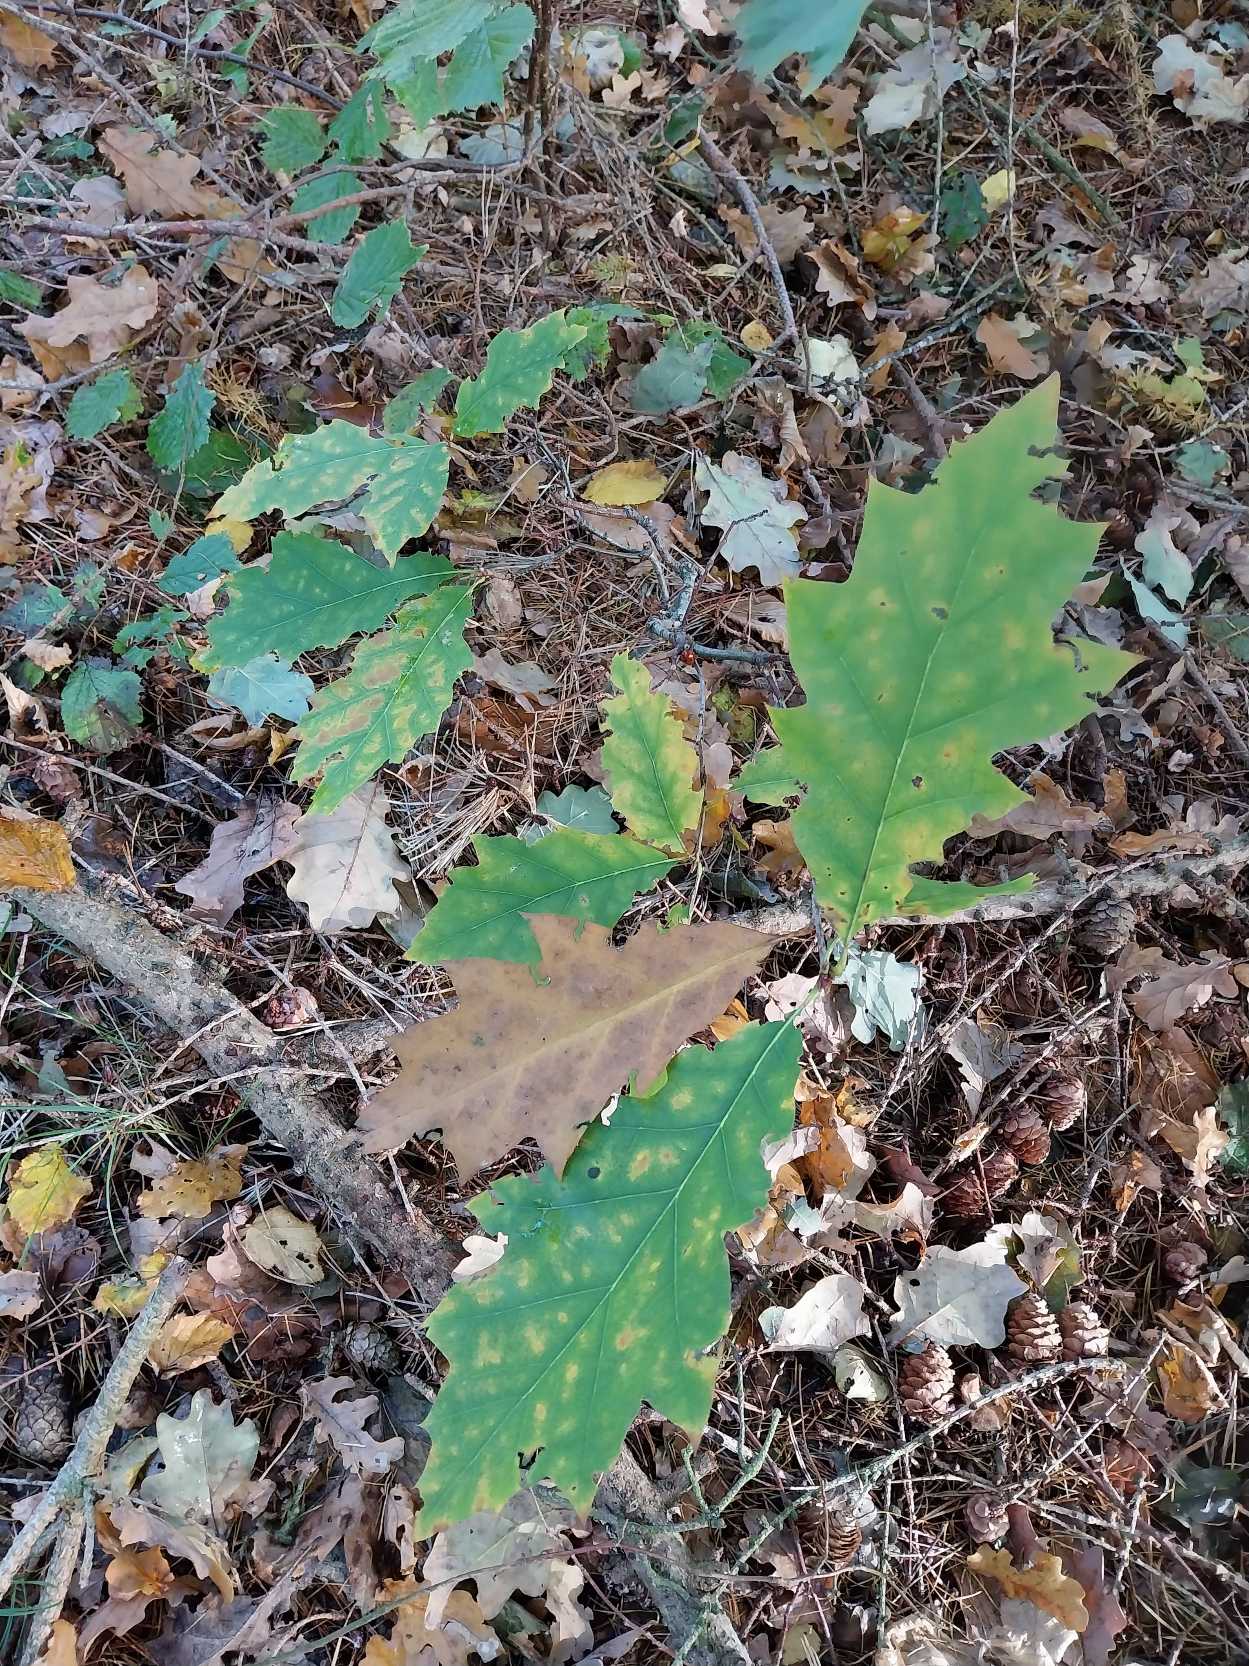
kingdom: Plantae
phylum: Tracheophyta
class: Magnoliopsida
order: Fagales
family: Fagaceae
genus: Quercus
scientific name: Quercus rubra
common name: Rød-eg
